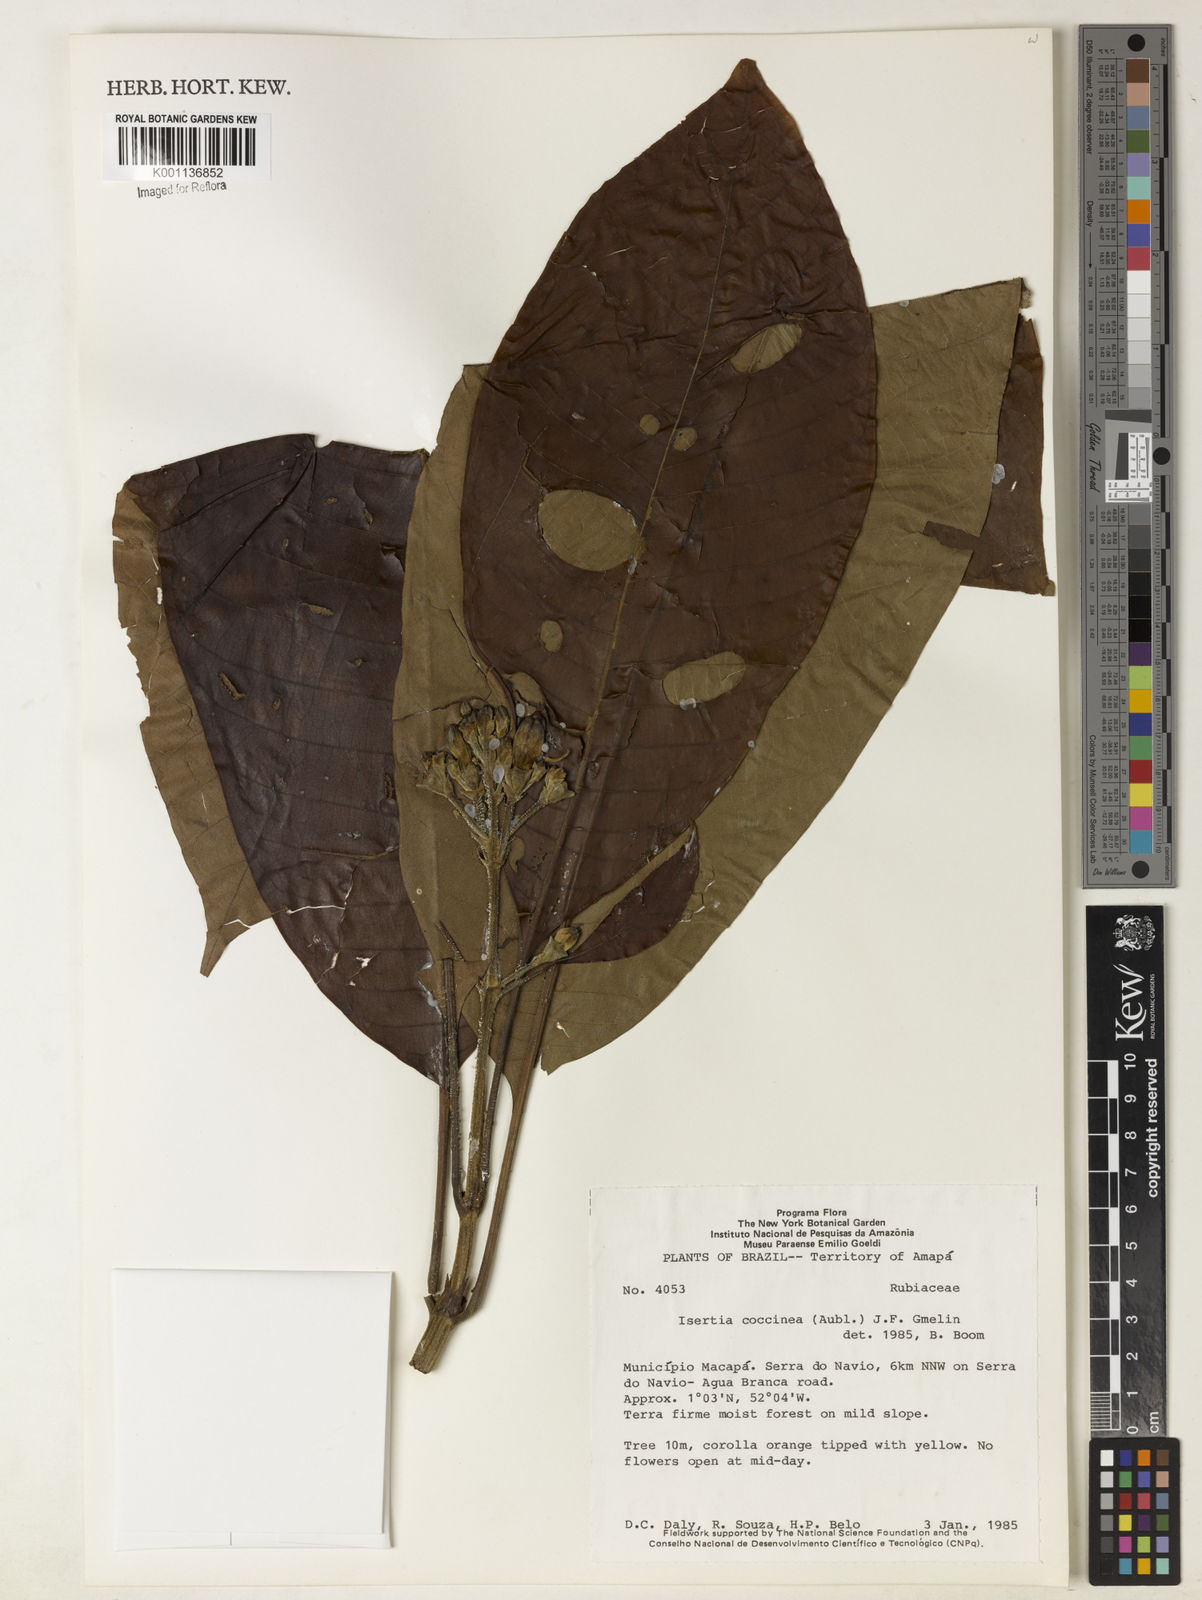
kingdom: Plantae
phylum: Tracheophyta
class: Magnoliopsida
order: Gentianales
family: Rubiaceae
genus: Isertia
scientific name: Isertia coccinea
